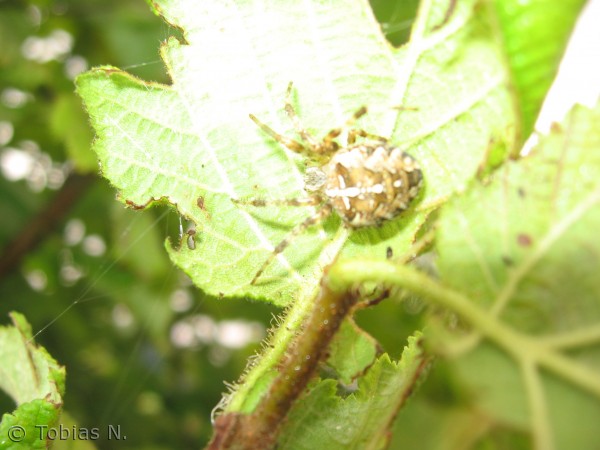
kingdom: Animalia
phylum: Arthropoda
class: Arachnida
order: Araneae
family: Araneidae
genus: Araneus
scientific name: Araneus diadematus
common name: Korsedderkop
